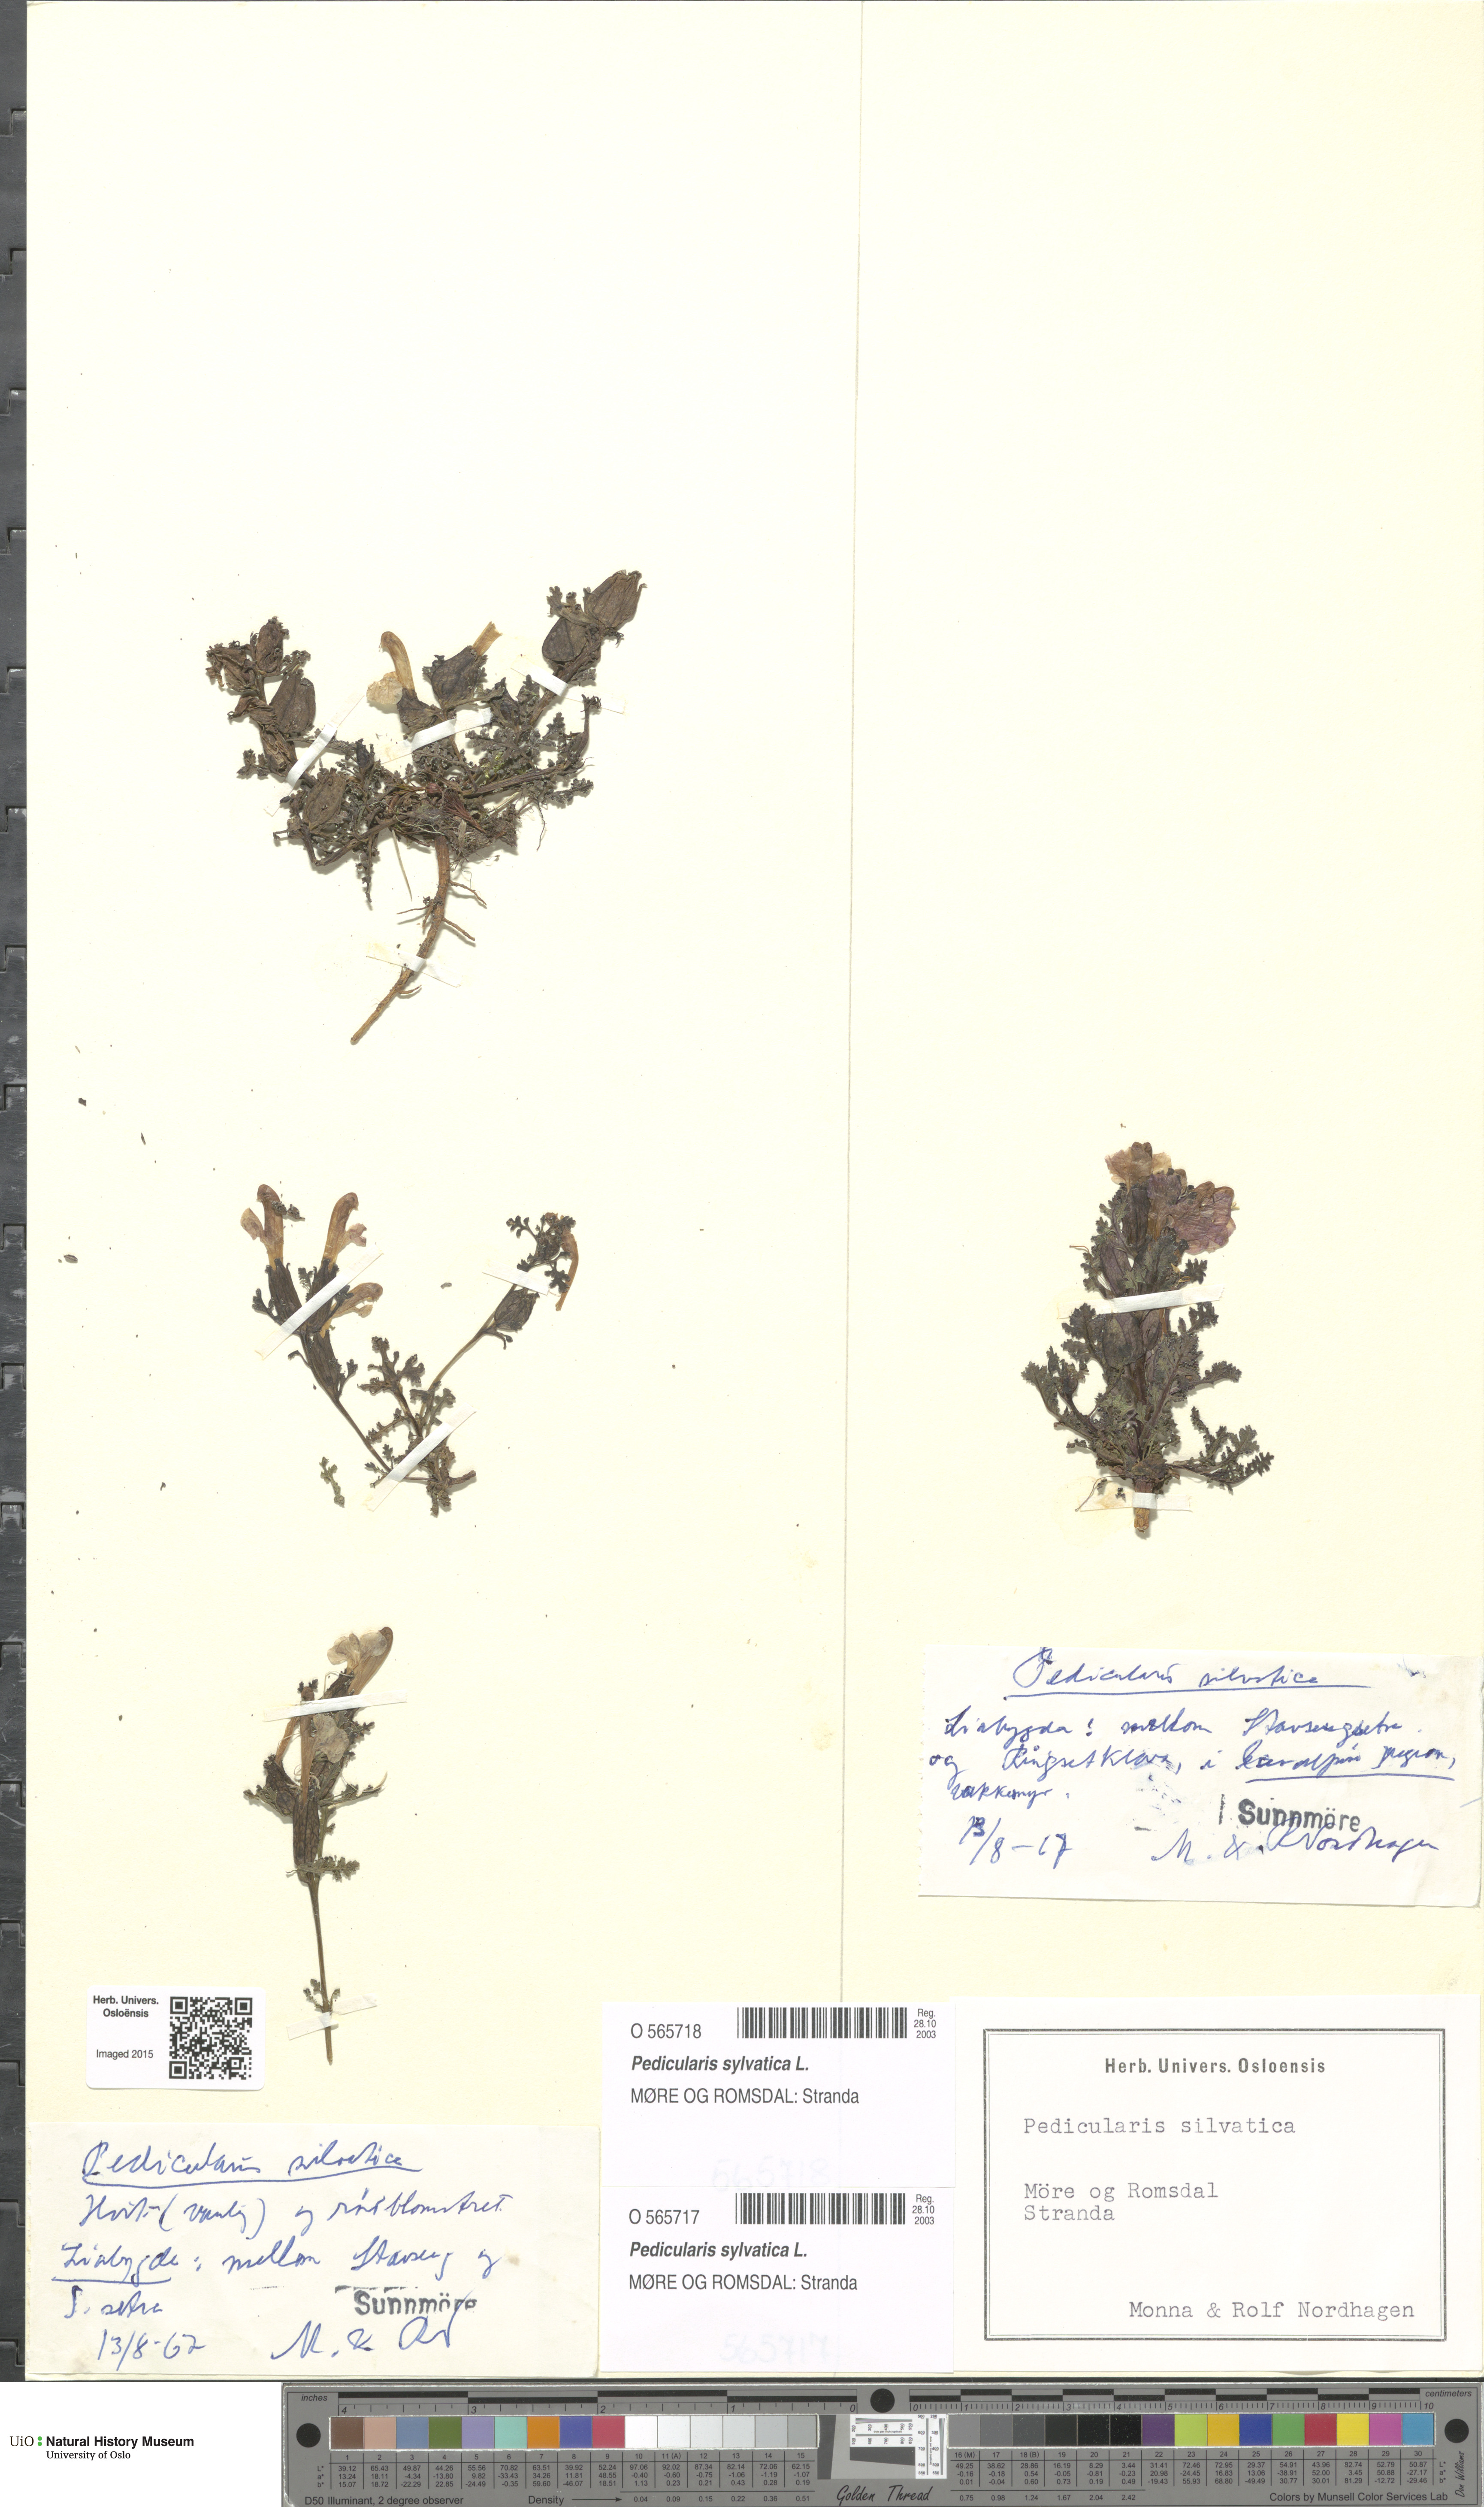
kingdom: Plantae
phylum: Tracheophyta
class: Magnoliopsida
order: Lamiales
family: Orobanchaceae
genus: Pedicularis
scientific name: Pedicularis sylvatica
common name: Lousewort
